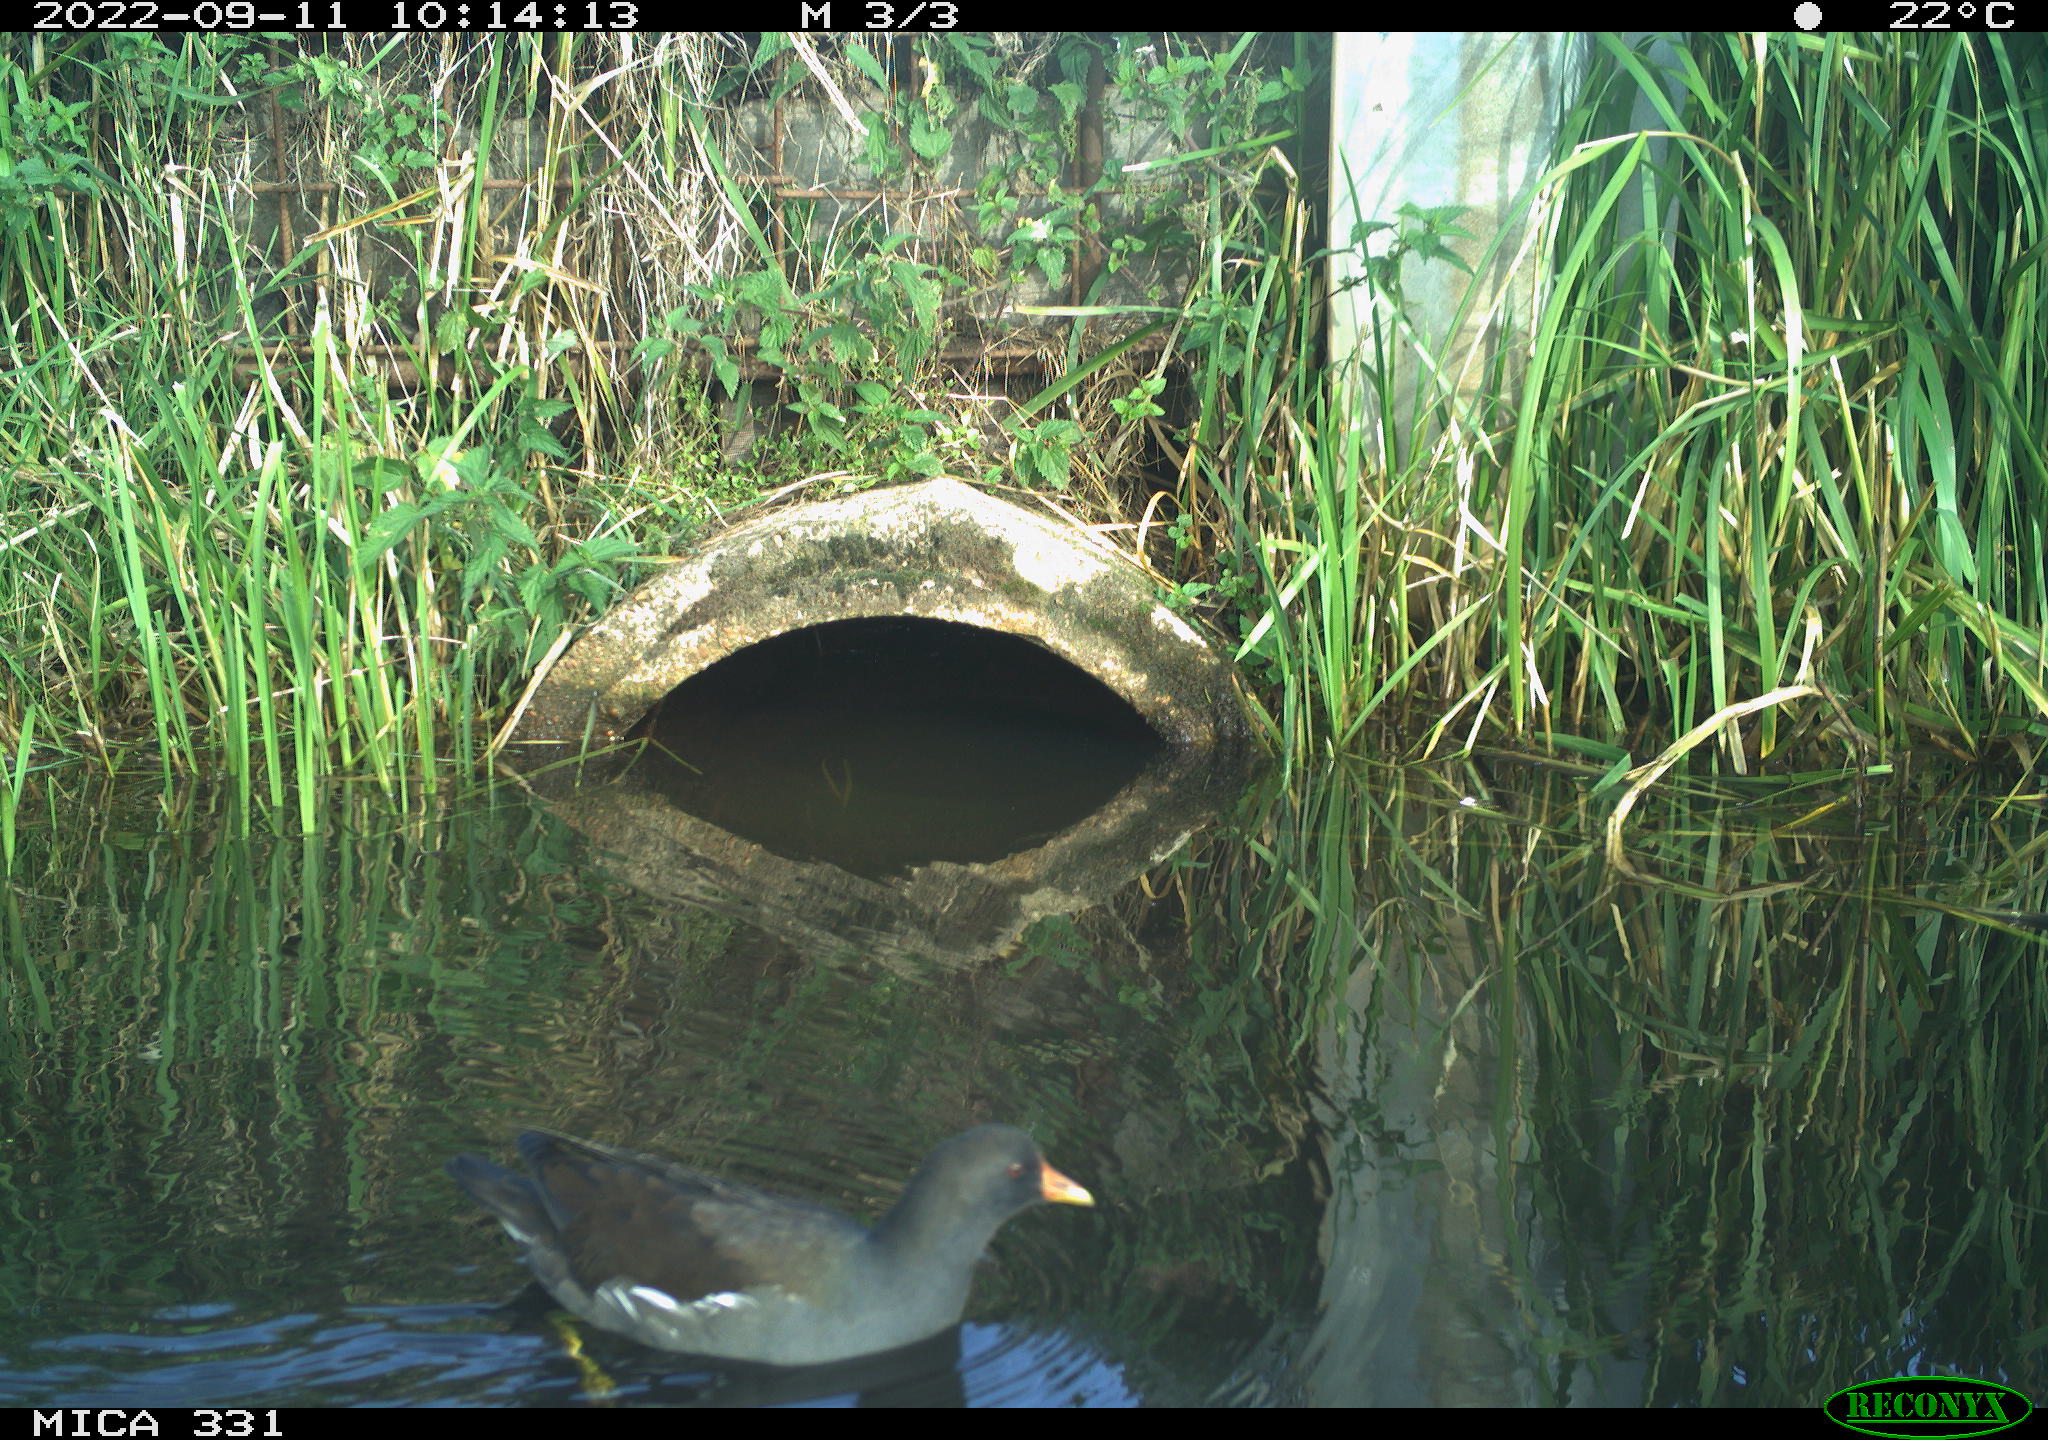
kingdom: Animalia
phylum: Chordata
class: Aves
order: Gruiformes
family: Rallidae
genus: Gallinula
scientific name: Gallinula chloropus
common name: Common moorhen
